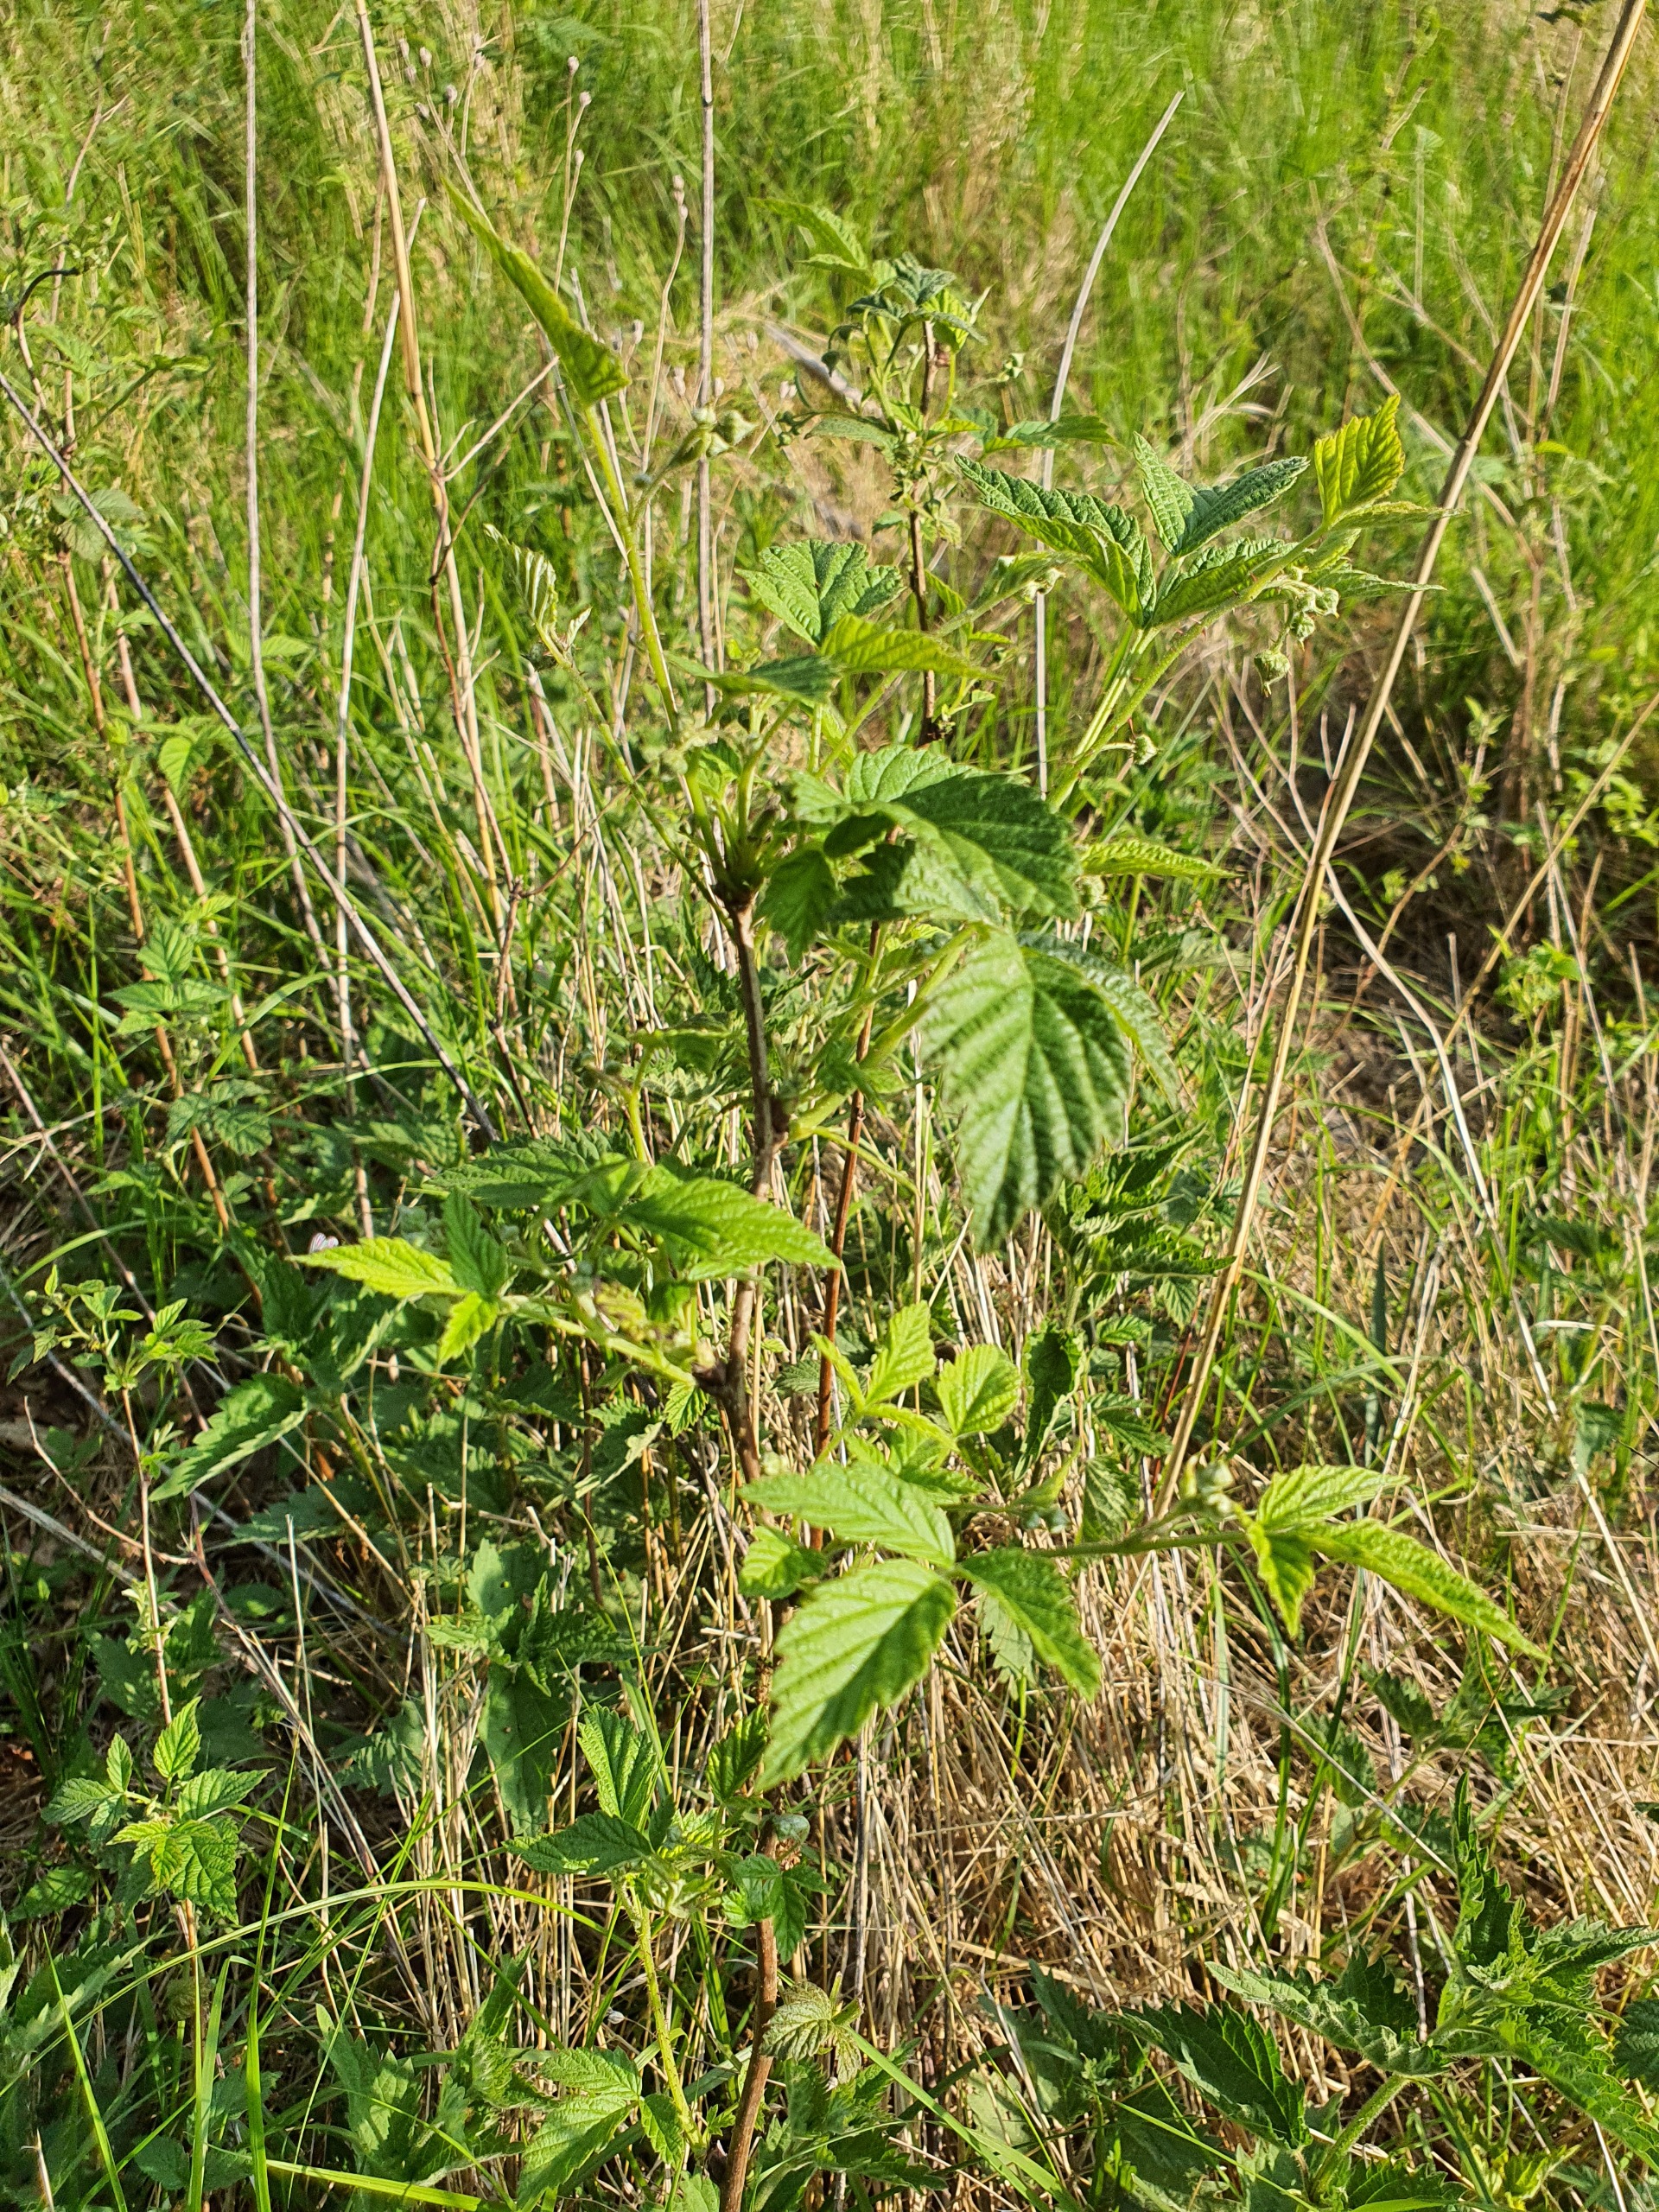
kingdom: Plantae
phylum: Tracheophyta
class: Magnoliopsida
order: Rosales
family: Rosaceae
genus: Rubus
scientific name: Rubus idaeus
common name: Hindbær
